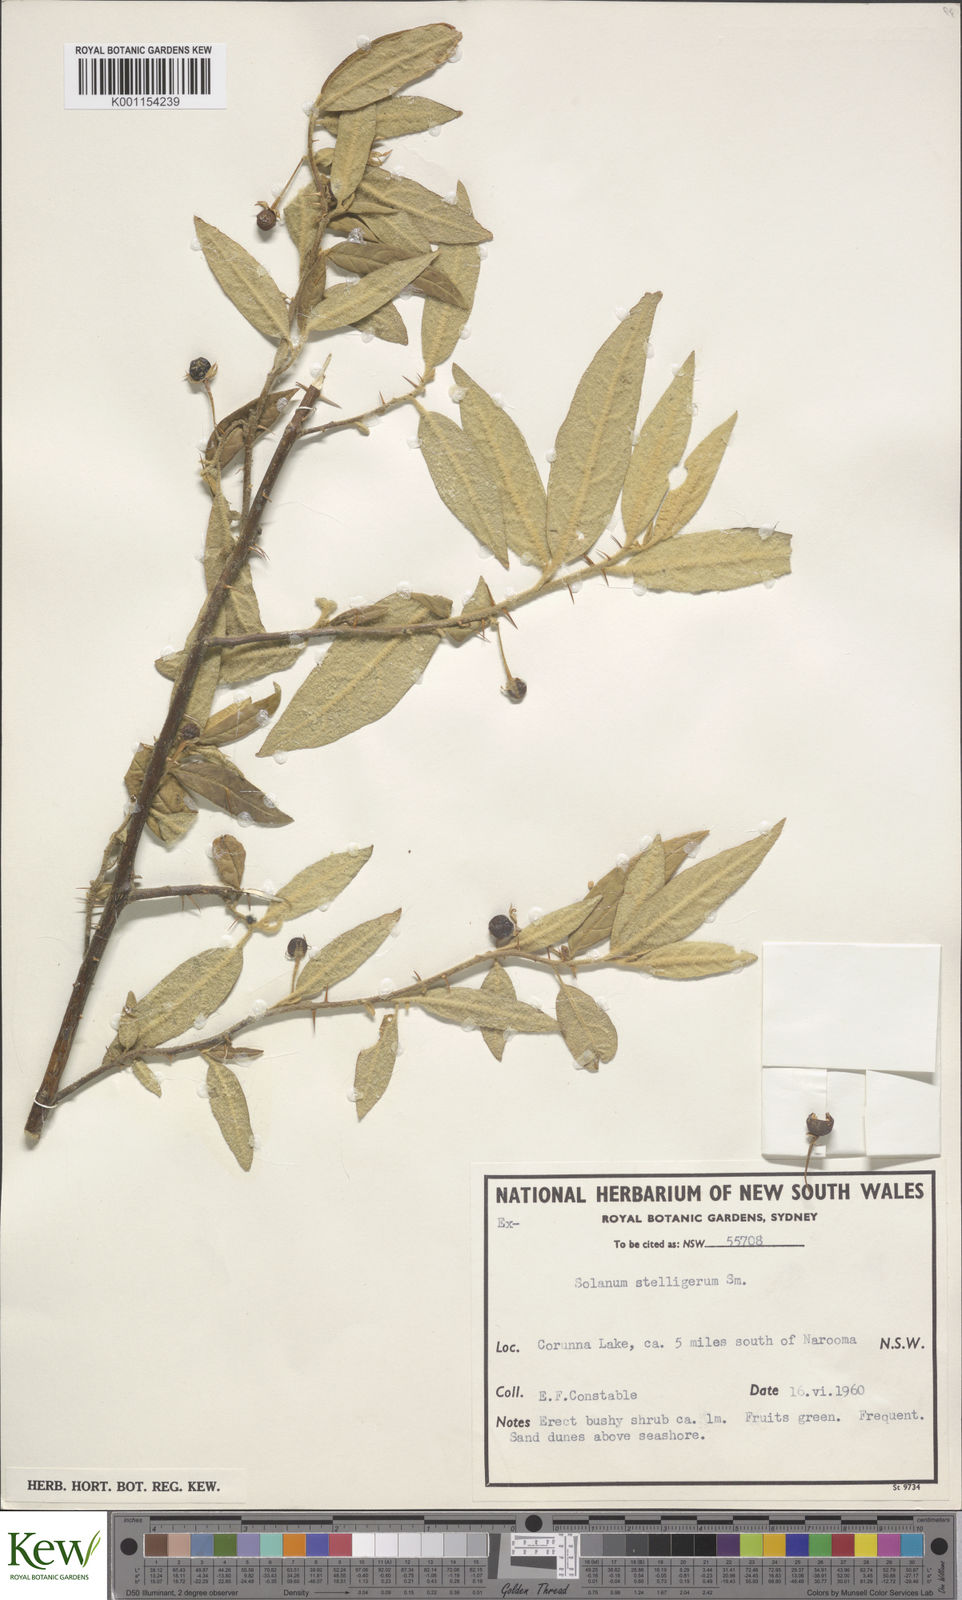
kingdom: Plantae
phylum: Tracheophyta
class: Magnoliopsida
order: Solanales
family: Solanaceae
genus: Solanum
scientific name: Solanum stelligerum
